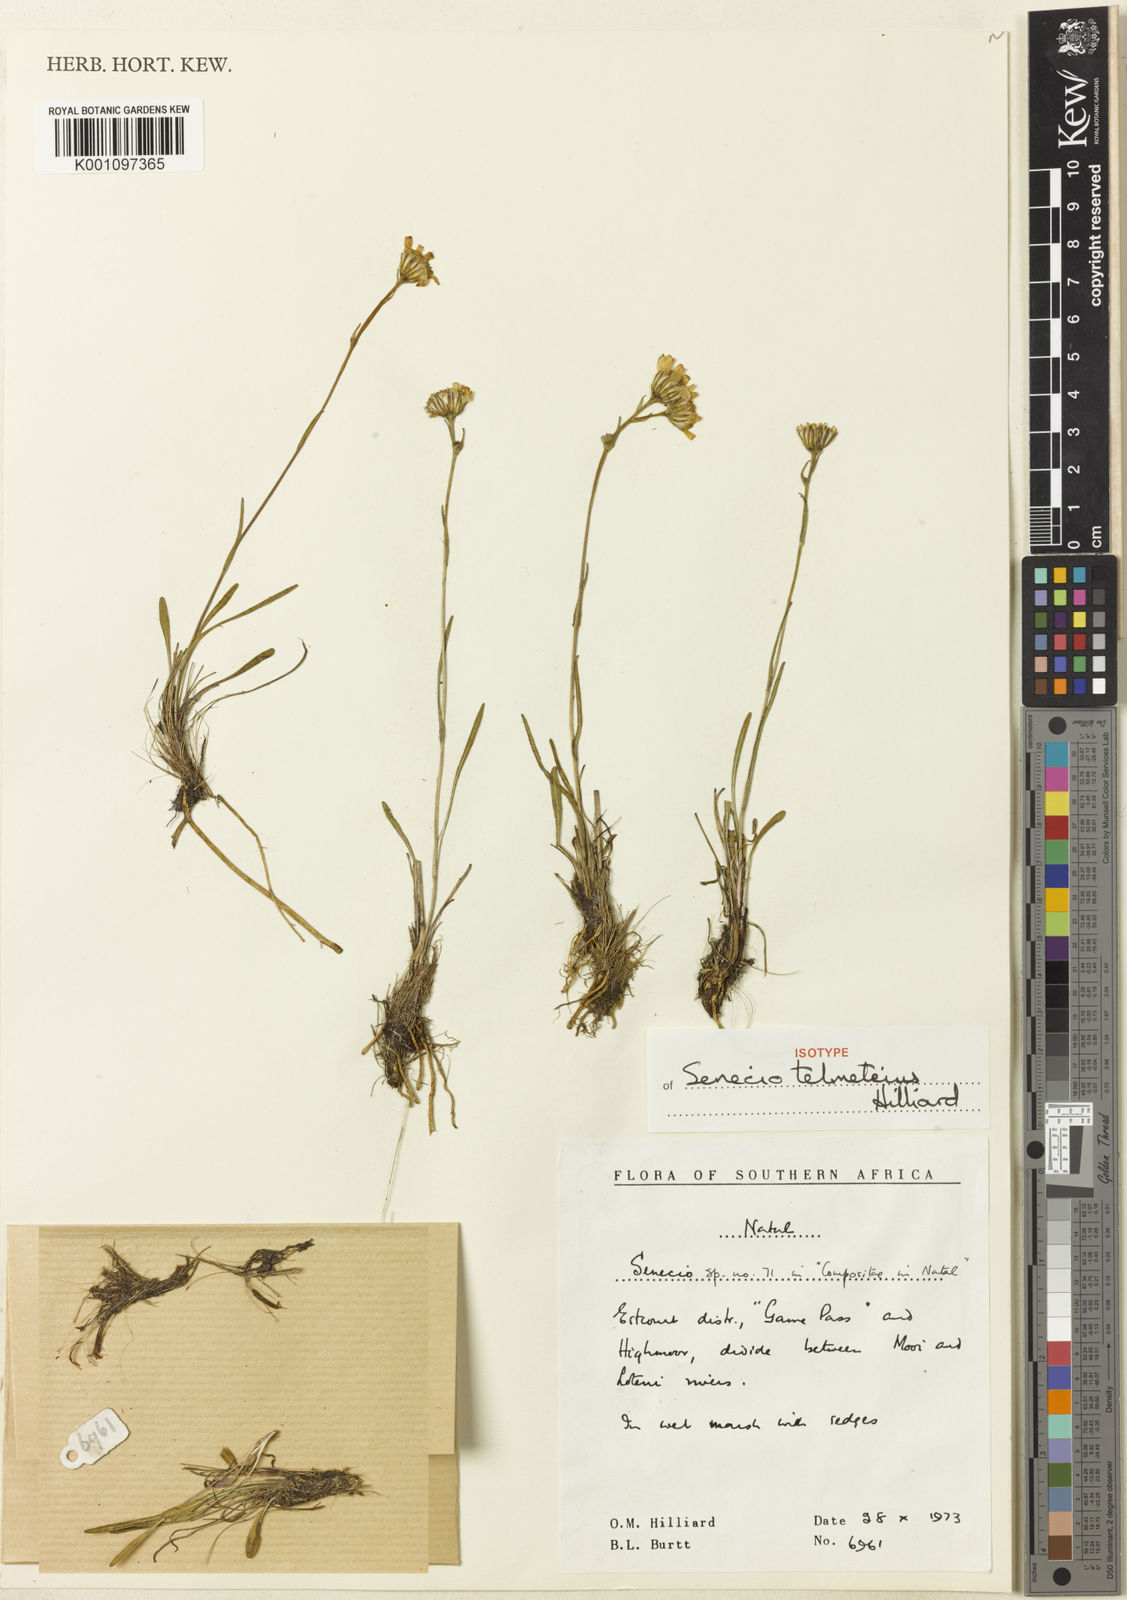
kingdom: Plantae
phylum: Tracheophyta
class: Magnoliopsida
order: Asterales
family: Asteraceae
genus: Senecio
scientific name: Senecio telmateius
